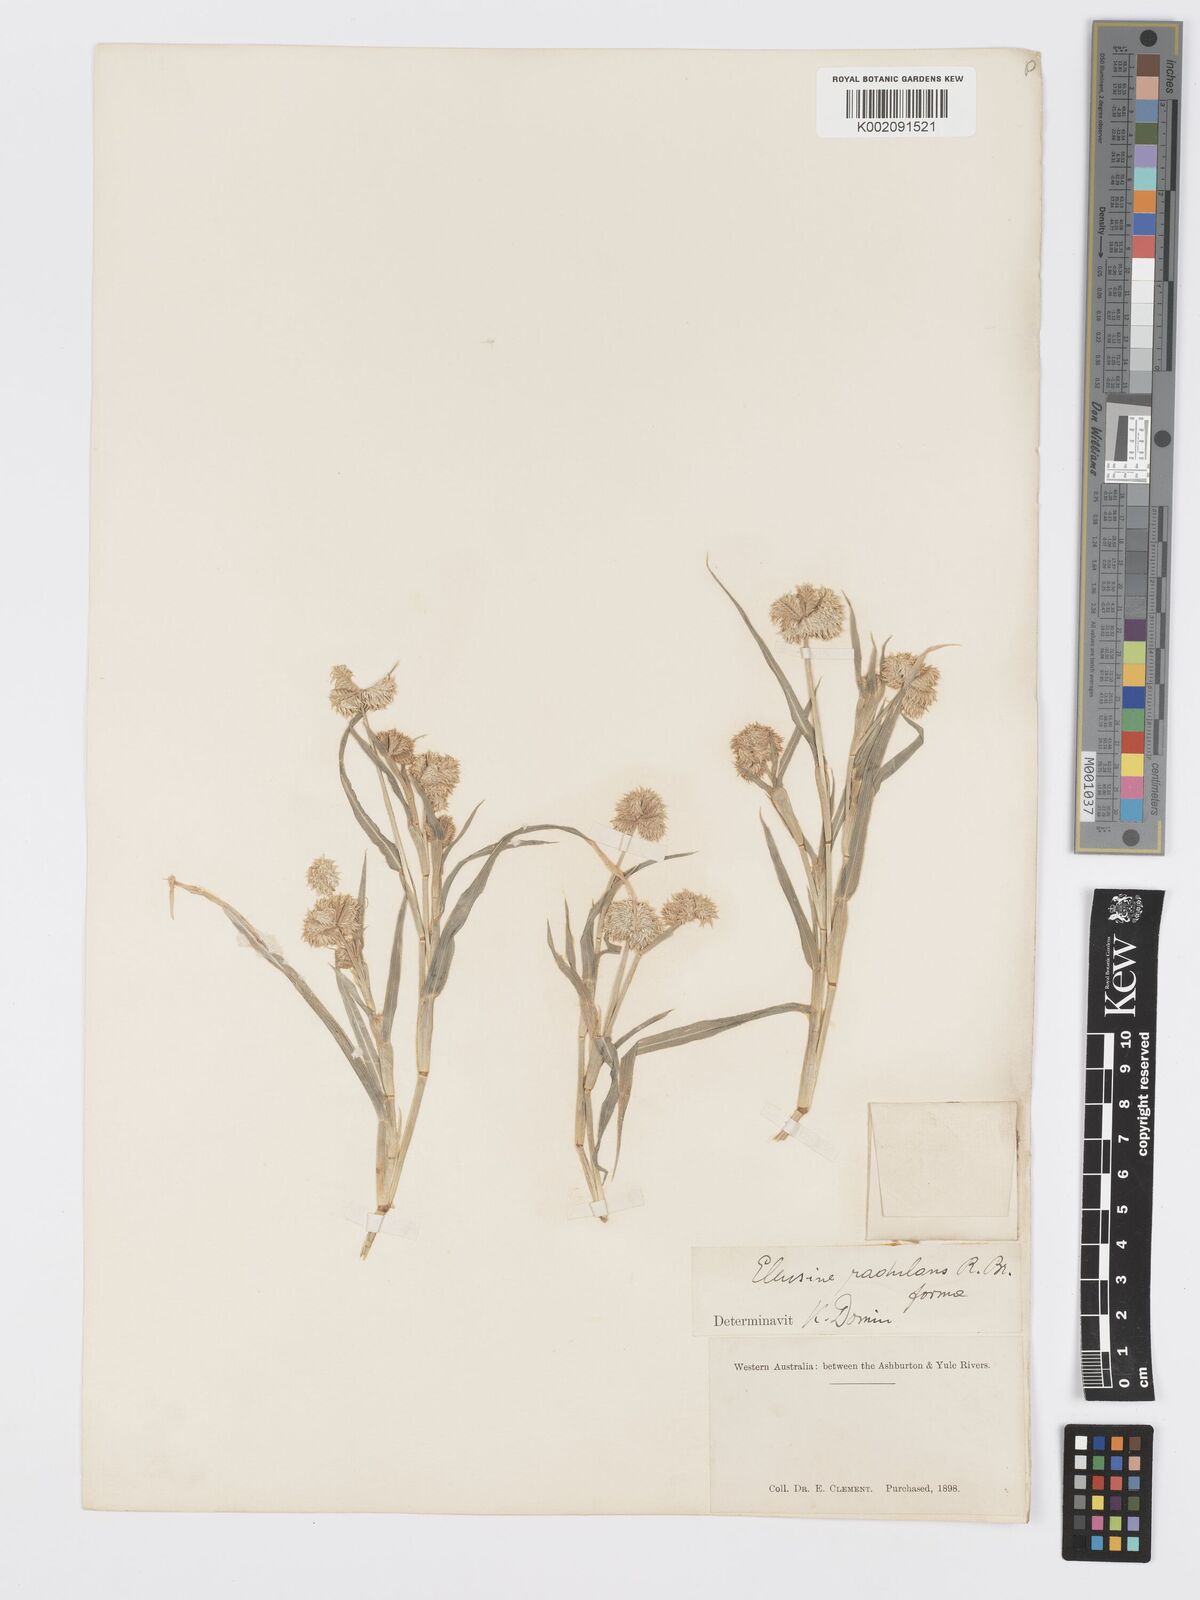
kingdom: Plantae
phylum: Tracheophyta
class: Liliopsida
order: Poales
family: Poaceae
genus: Dactyloctenium
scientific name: Dactyloctenium radulans
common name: Button-grass
